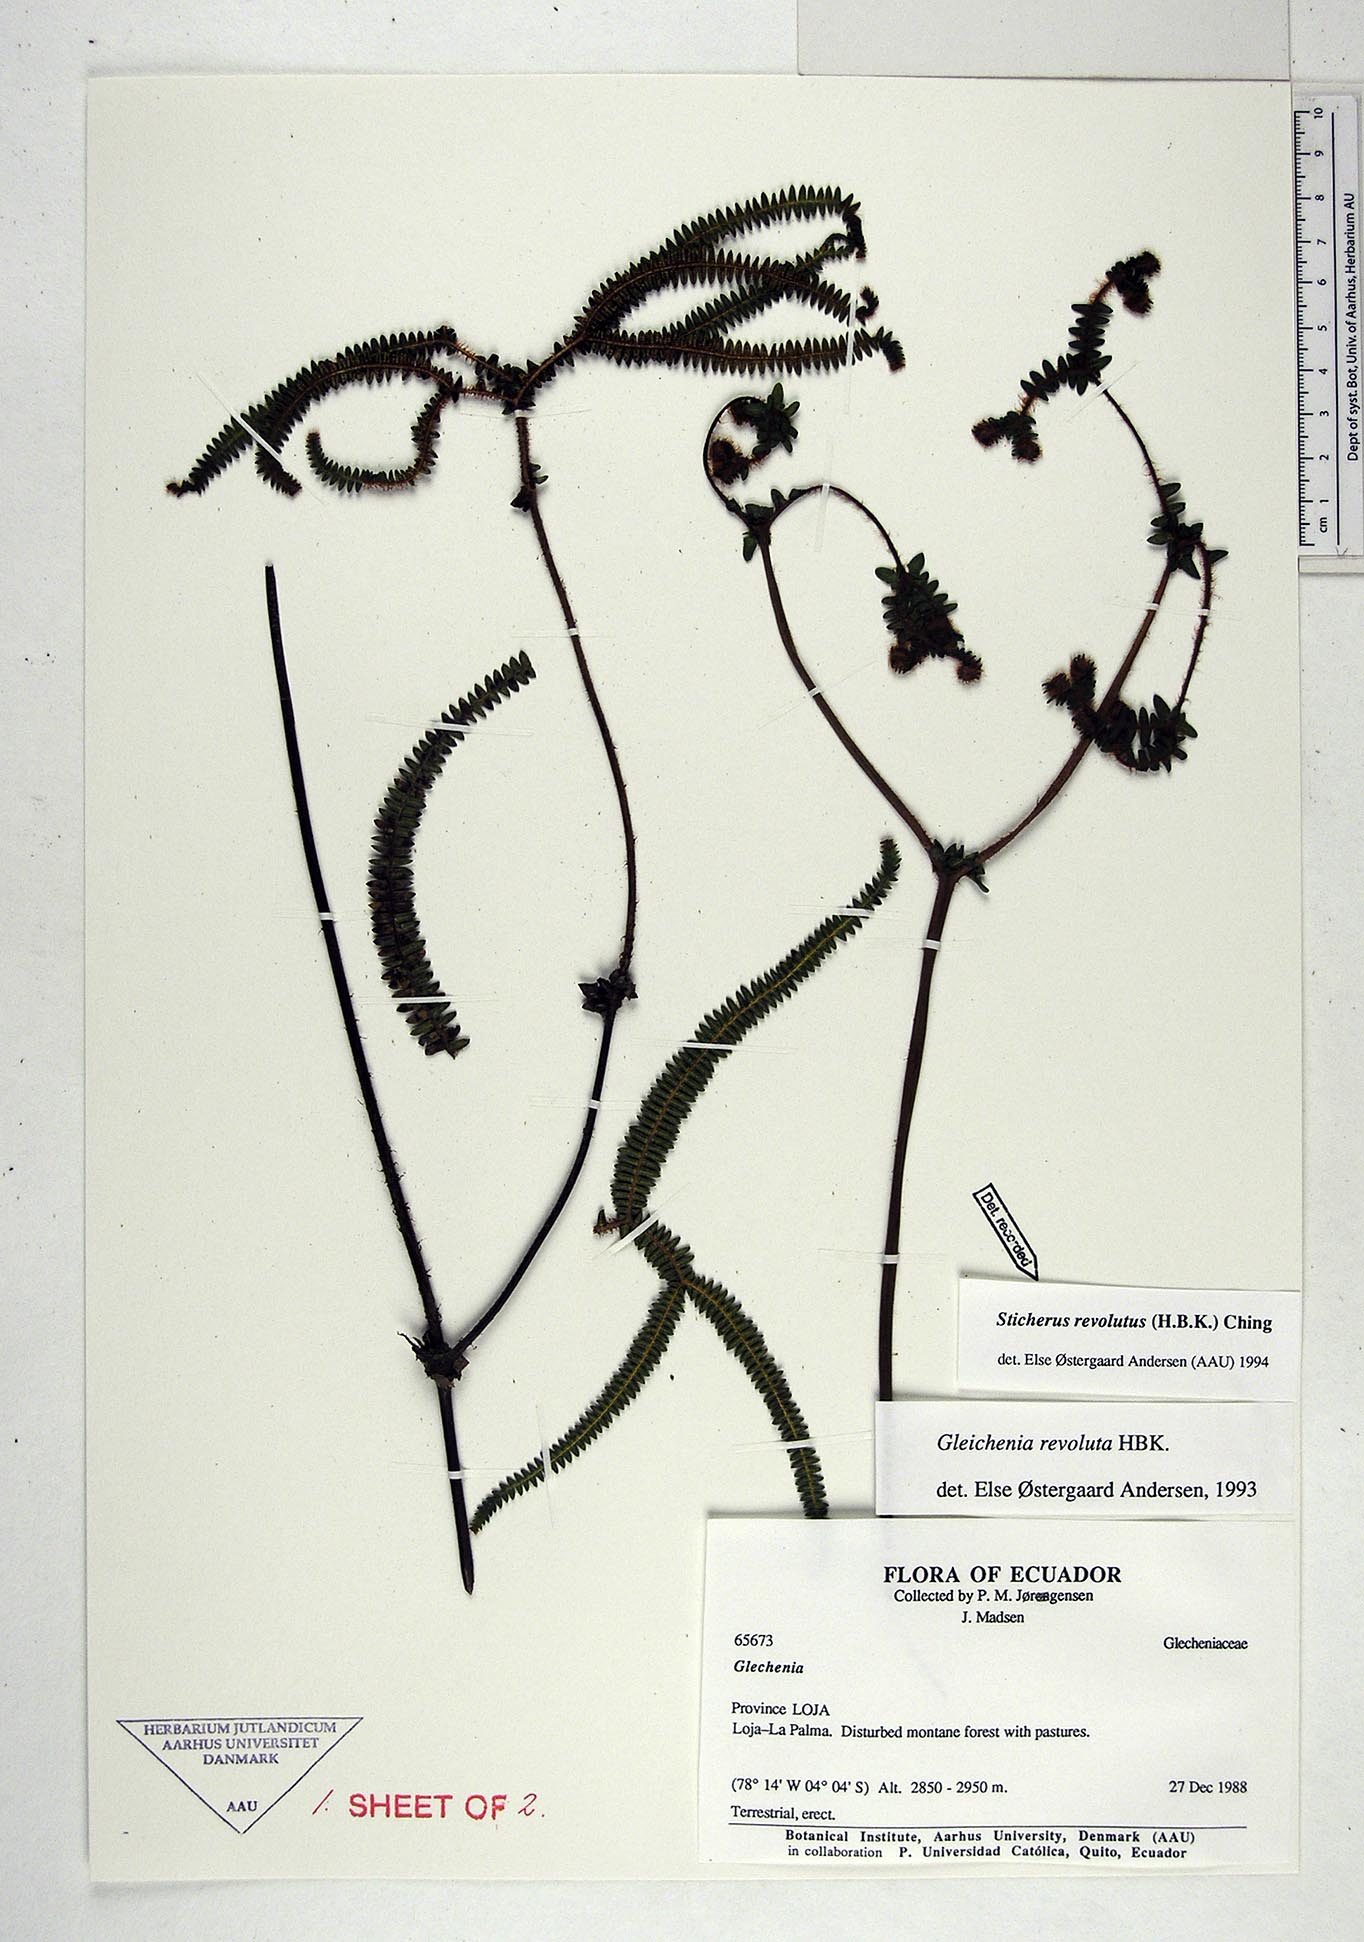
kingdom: Plantae
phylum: Tracheophyta
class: Polypodiopsida
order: Gleicheniales
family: Gleicheniaceae
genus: Sticherus
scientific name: Sticherus revolutus
